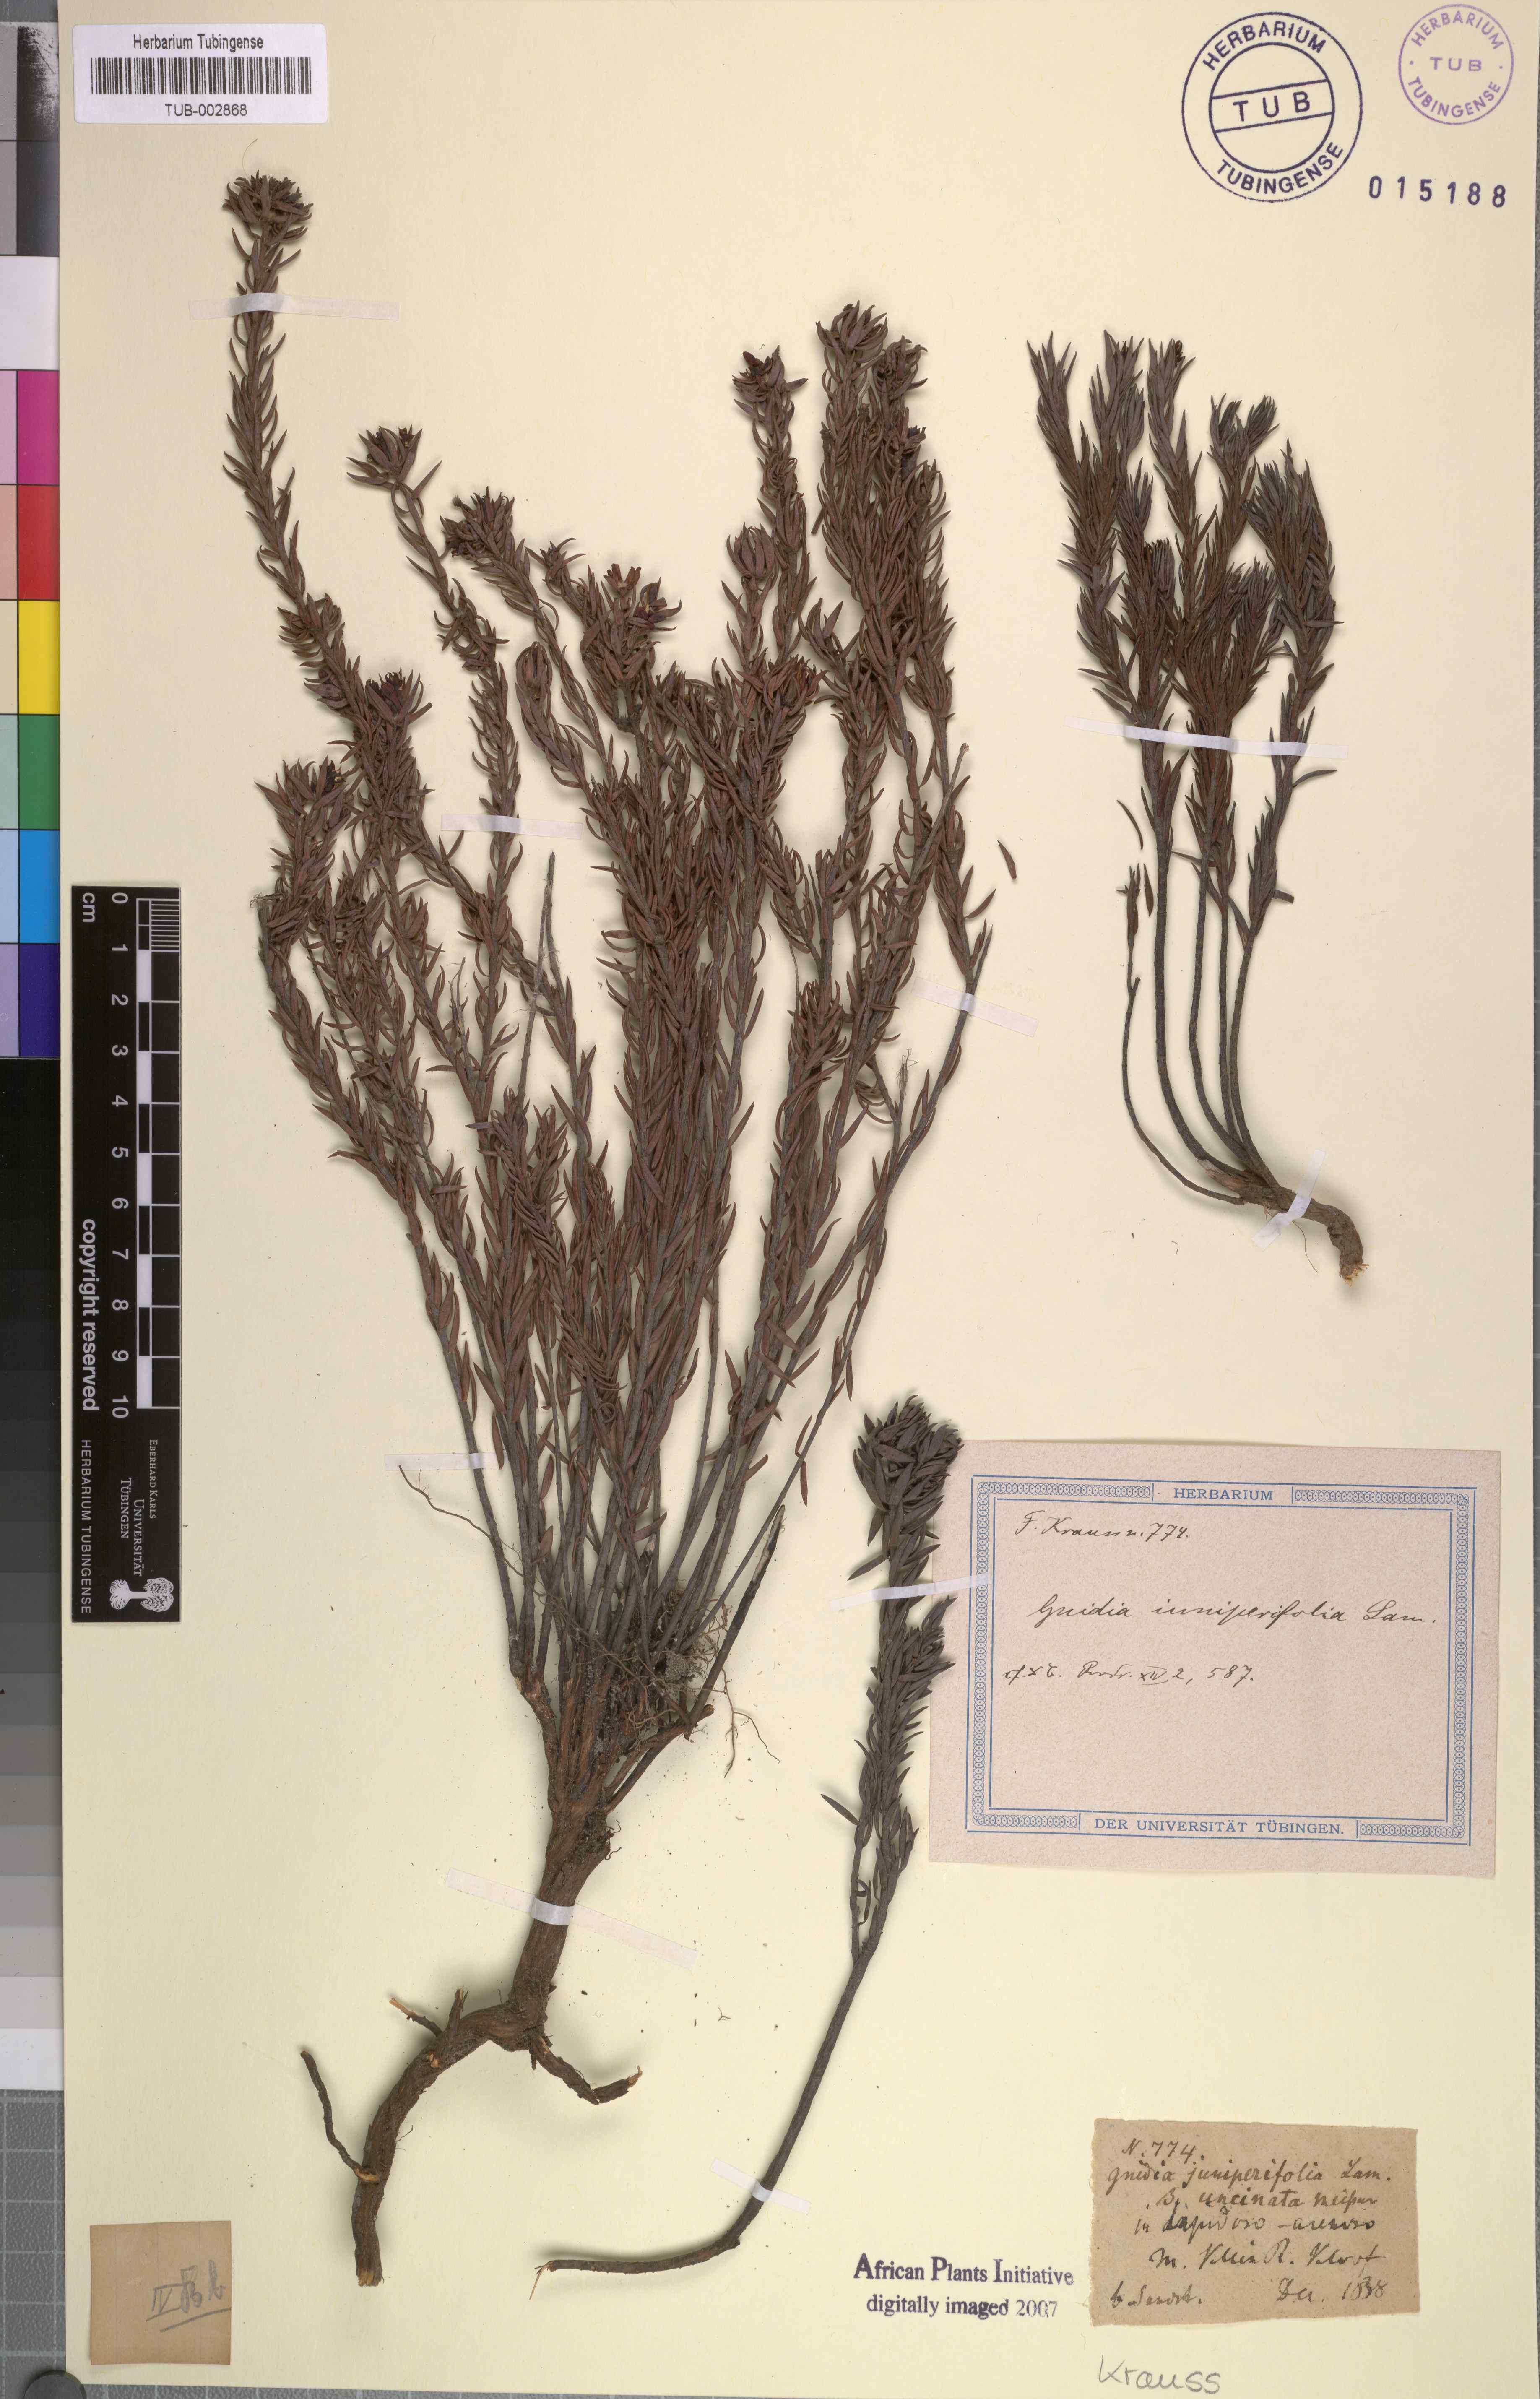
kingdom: Plantae
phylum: Tracheophyta
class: Magnoliopsida
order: Malvales
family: Thymelaeaceae
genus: Gnidia
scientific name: Gnidia juniperifolia
